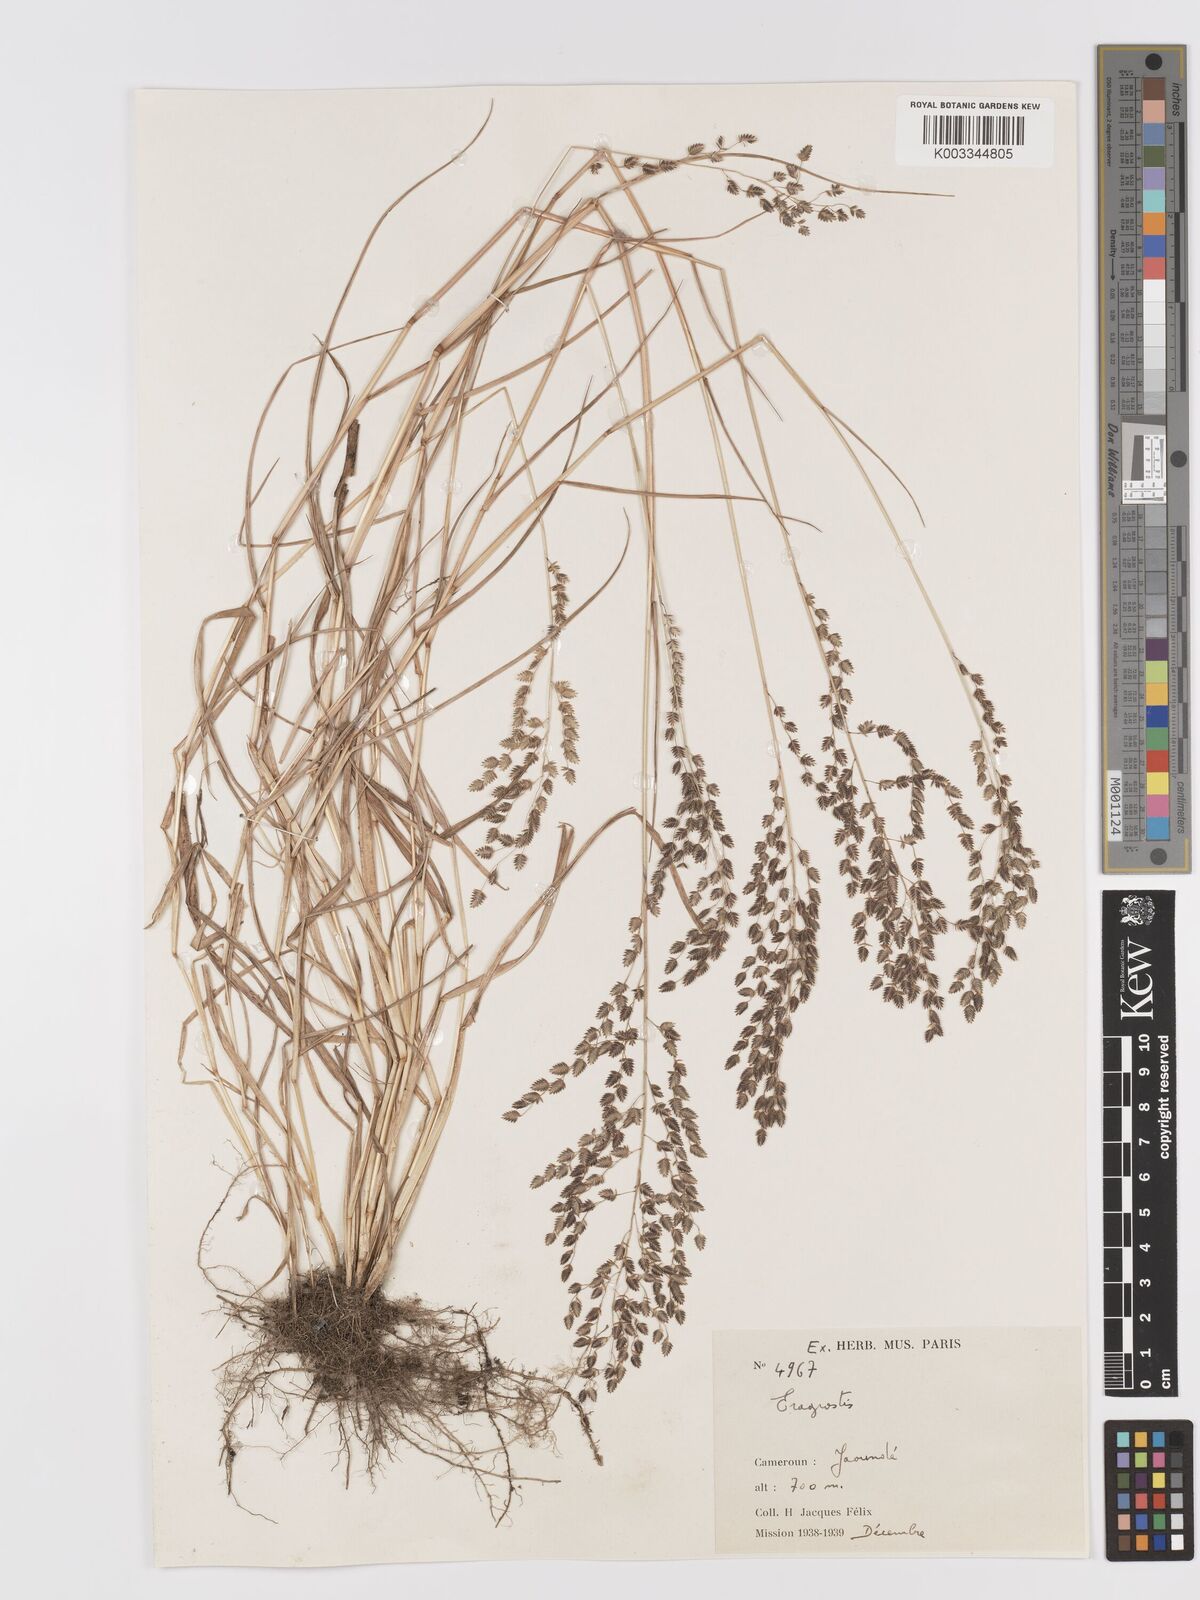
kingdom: Plantae
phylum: Tracheophyta
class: Liliopsida
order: Poales
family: Poaceae
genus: Eragrostis
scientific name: Eragrostis scotelliana
